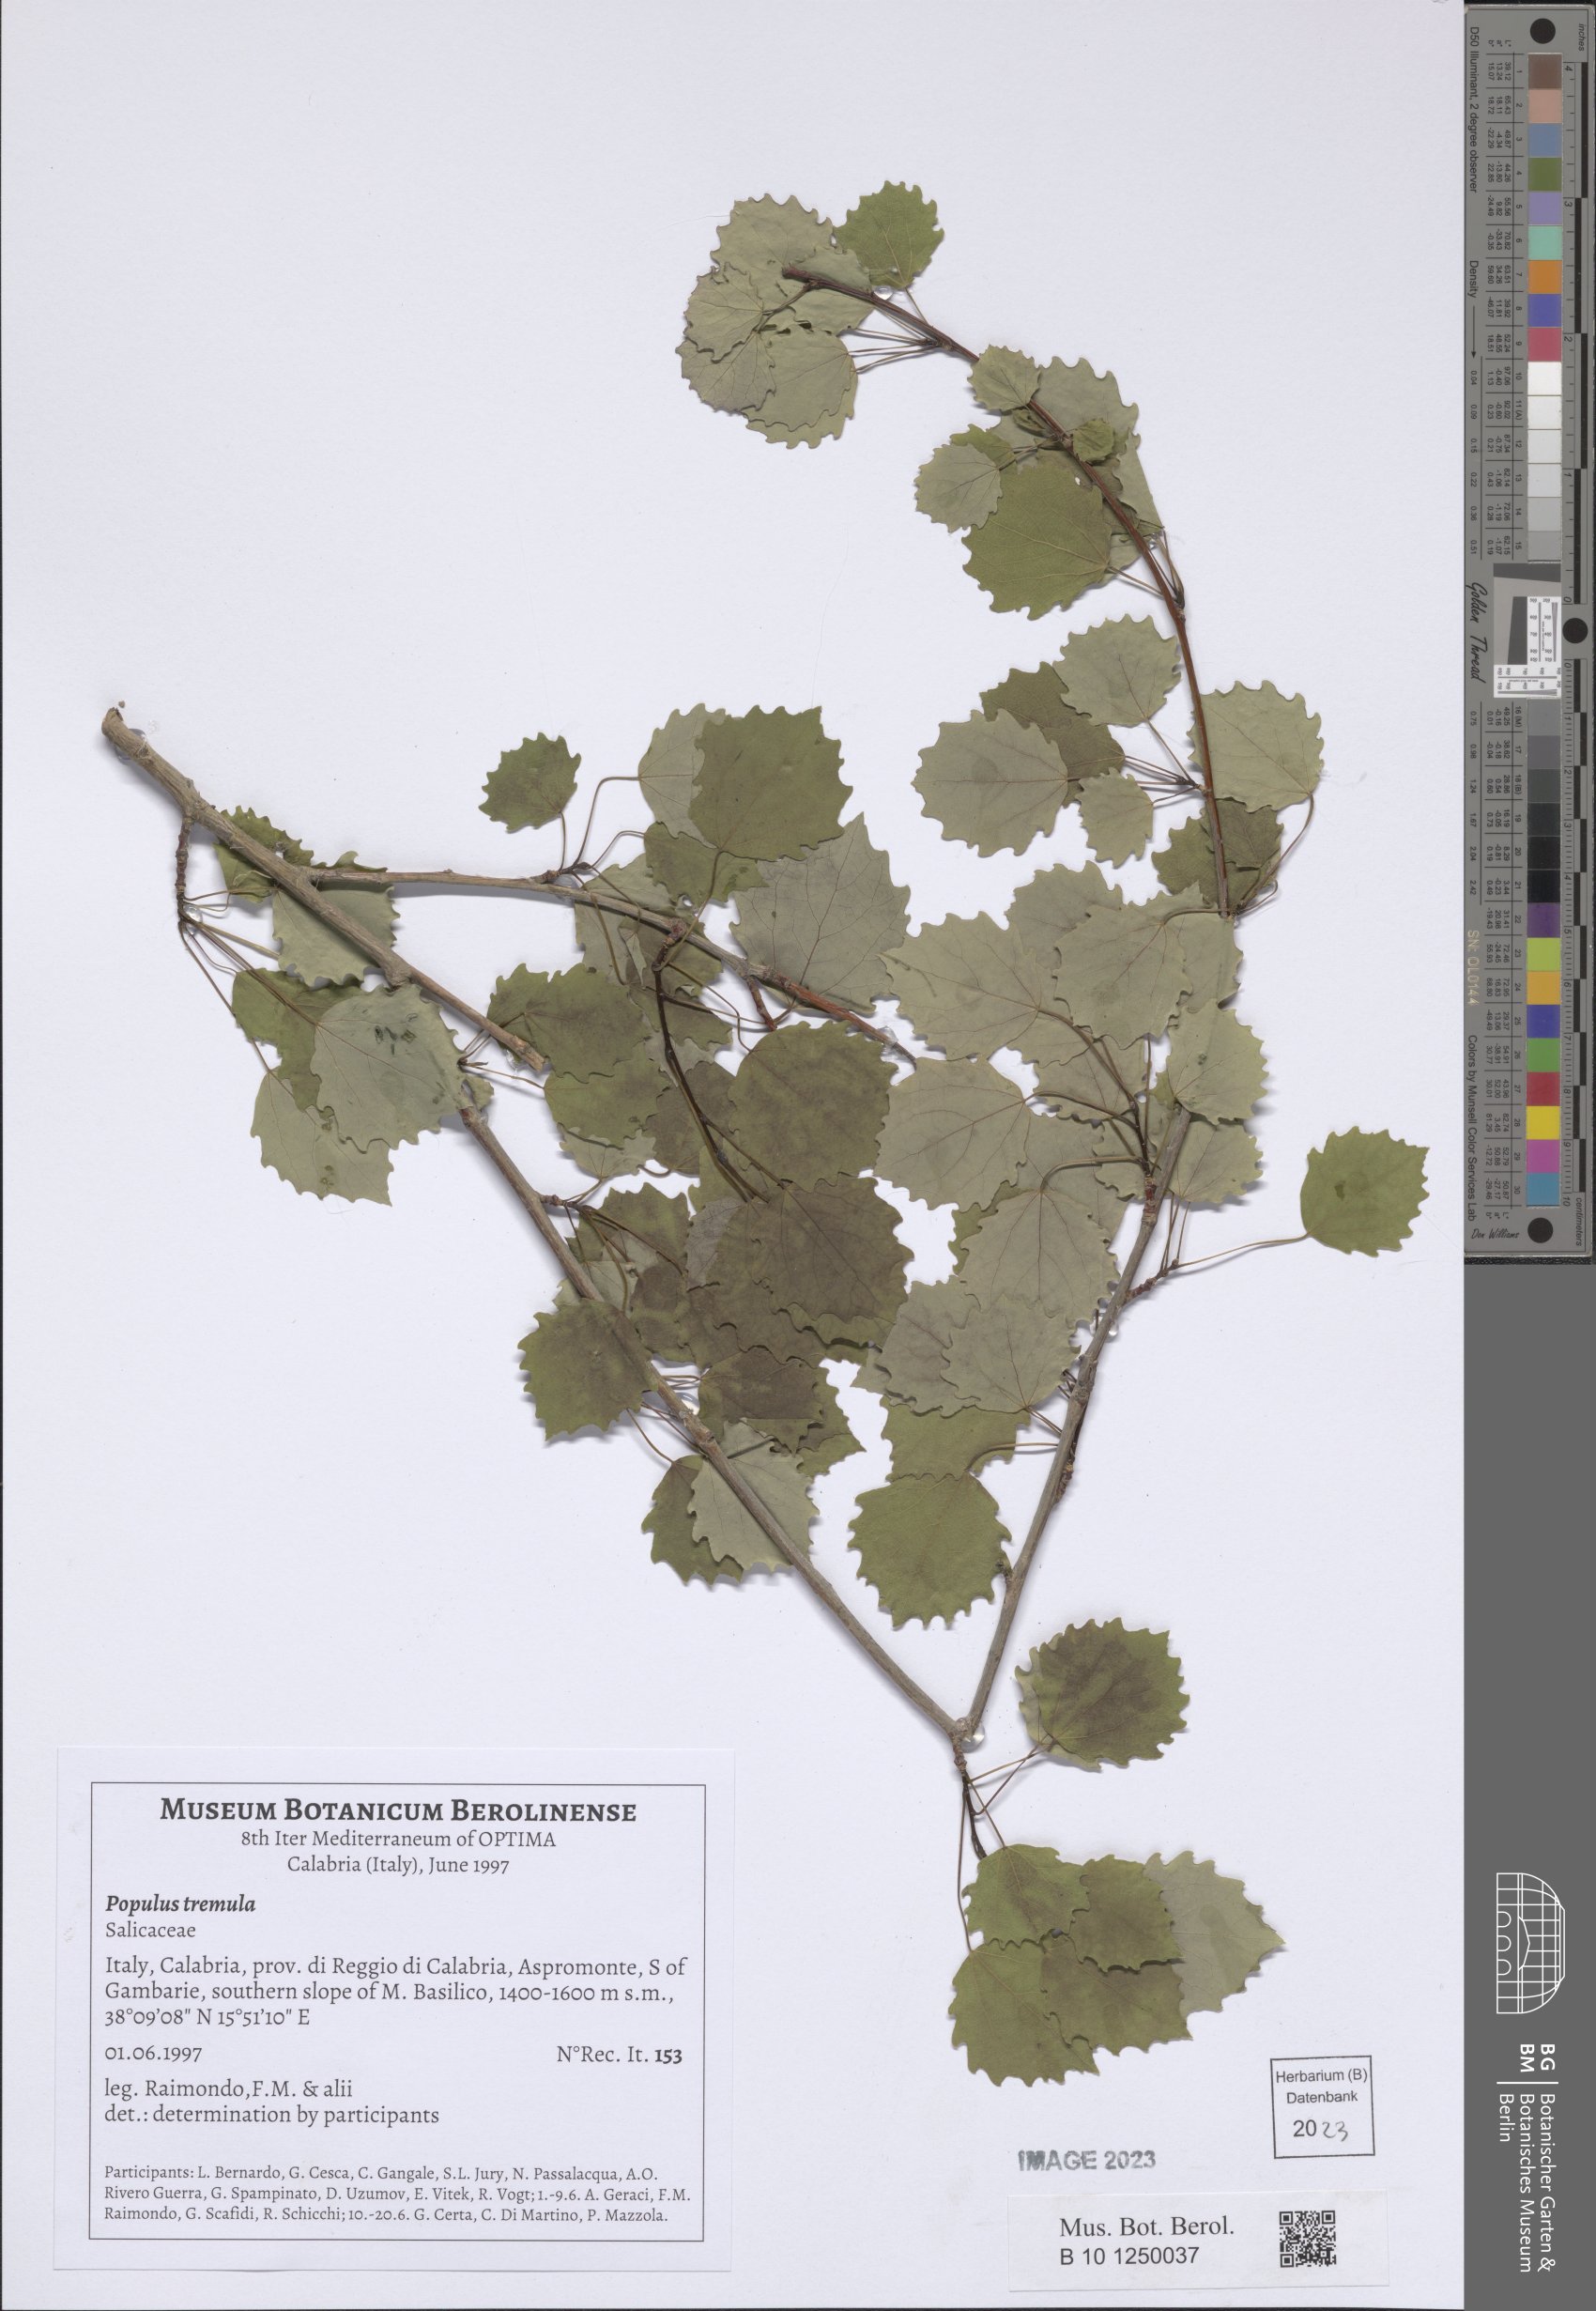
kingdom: Plantae
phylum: Tracheophyta
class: Magnoliopsida
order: Malpighiales
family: Salicaceae
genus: Populus
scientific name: Populus tremula
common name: European aspen
